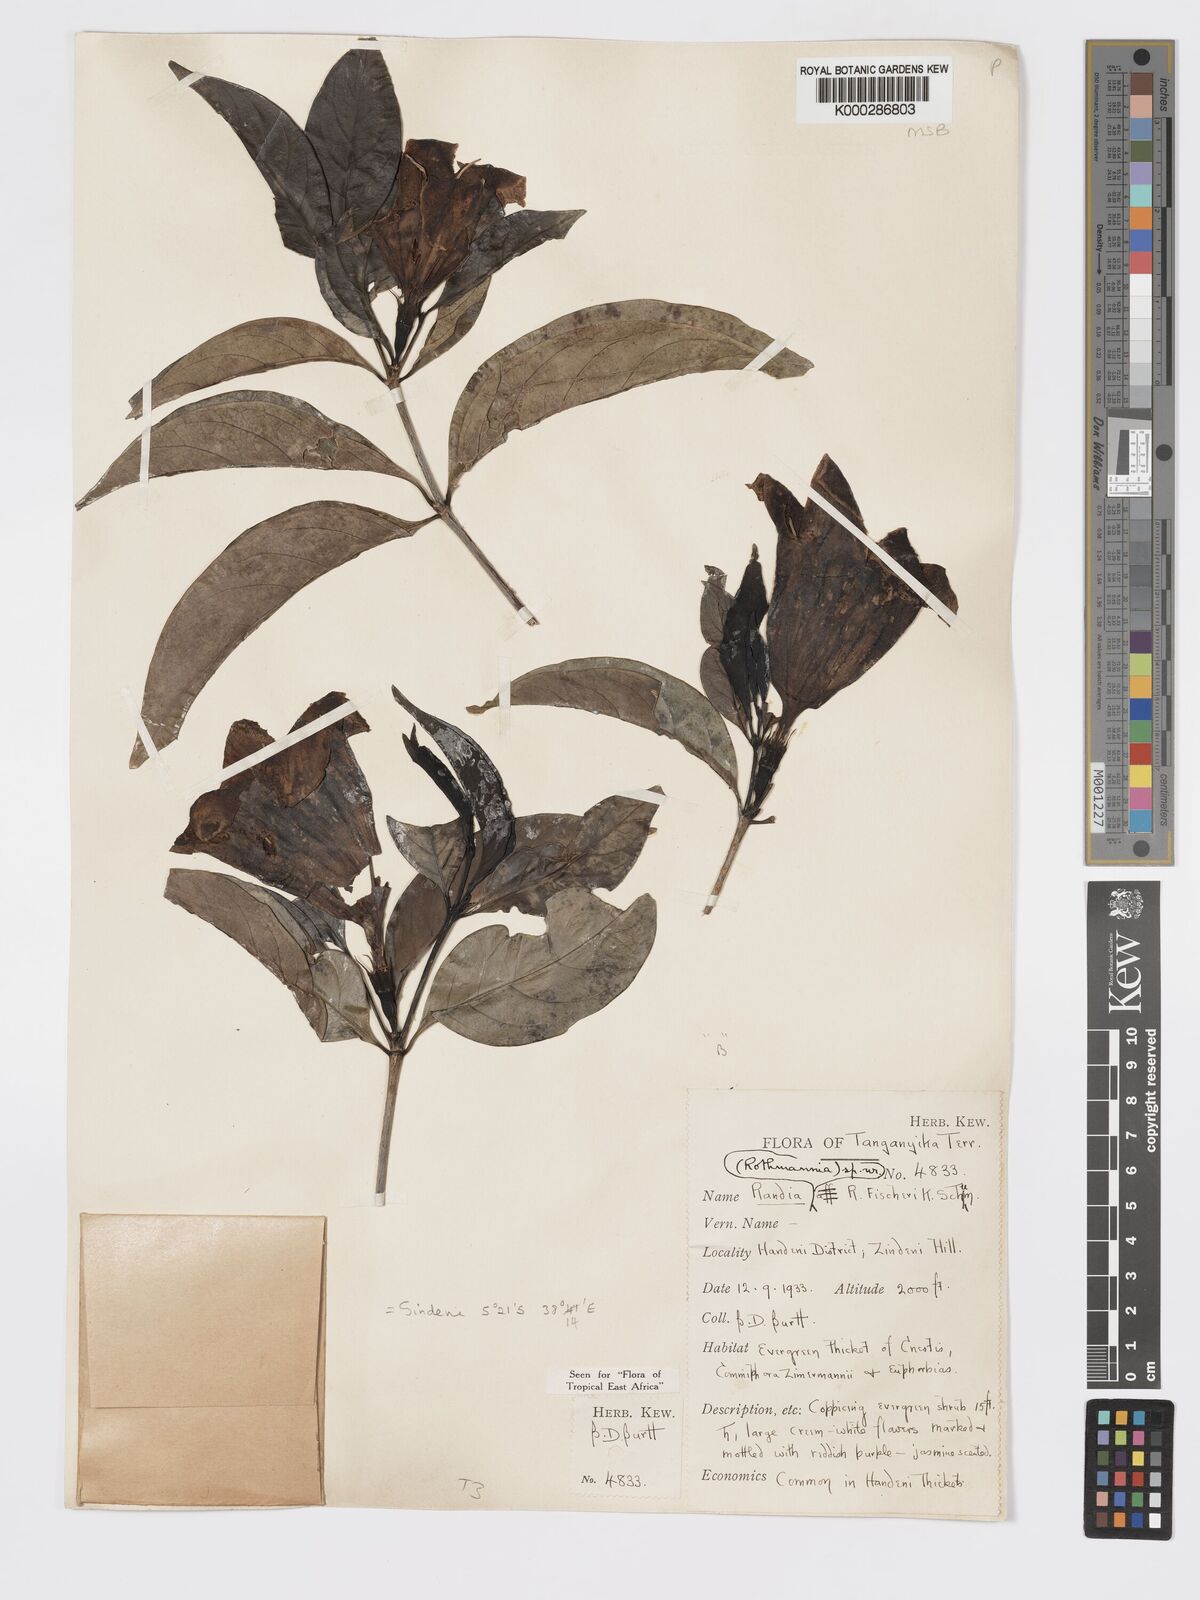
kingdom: Plantae
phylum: Tracheophyta
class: Magnoliopsida
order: Gentianales
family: Rubiaceae
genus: Rothmannia
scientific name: Rothmannia ravae
